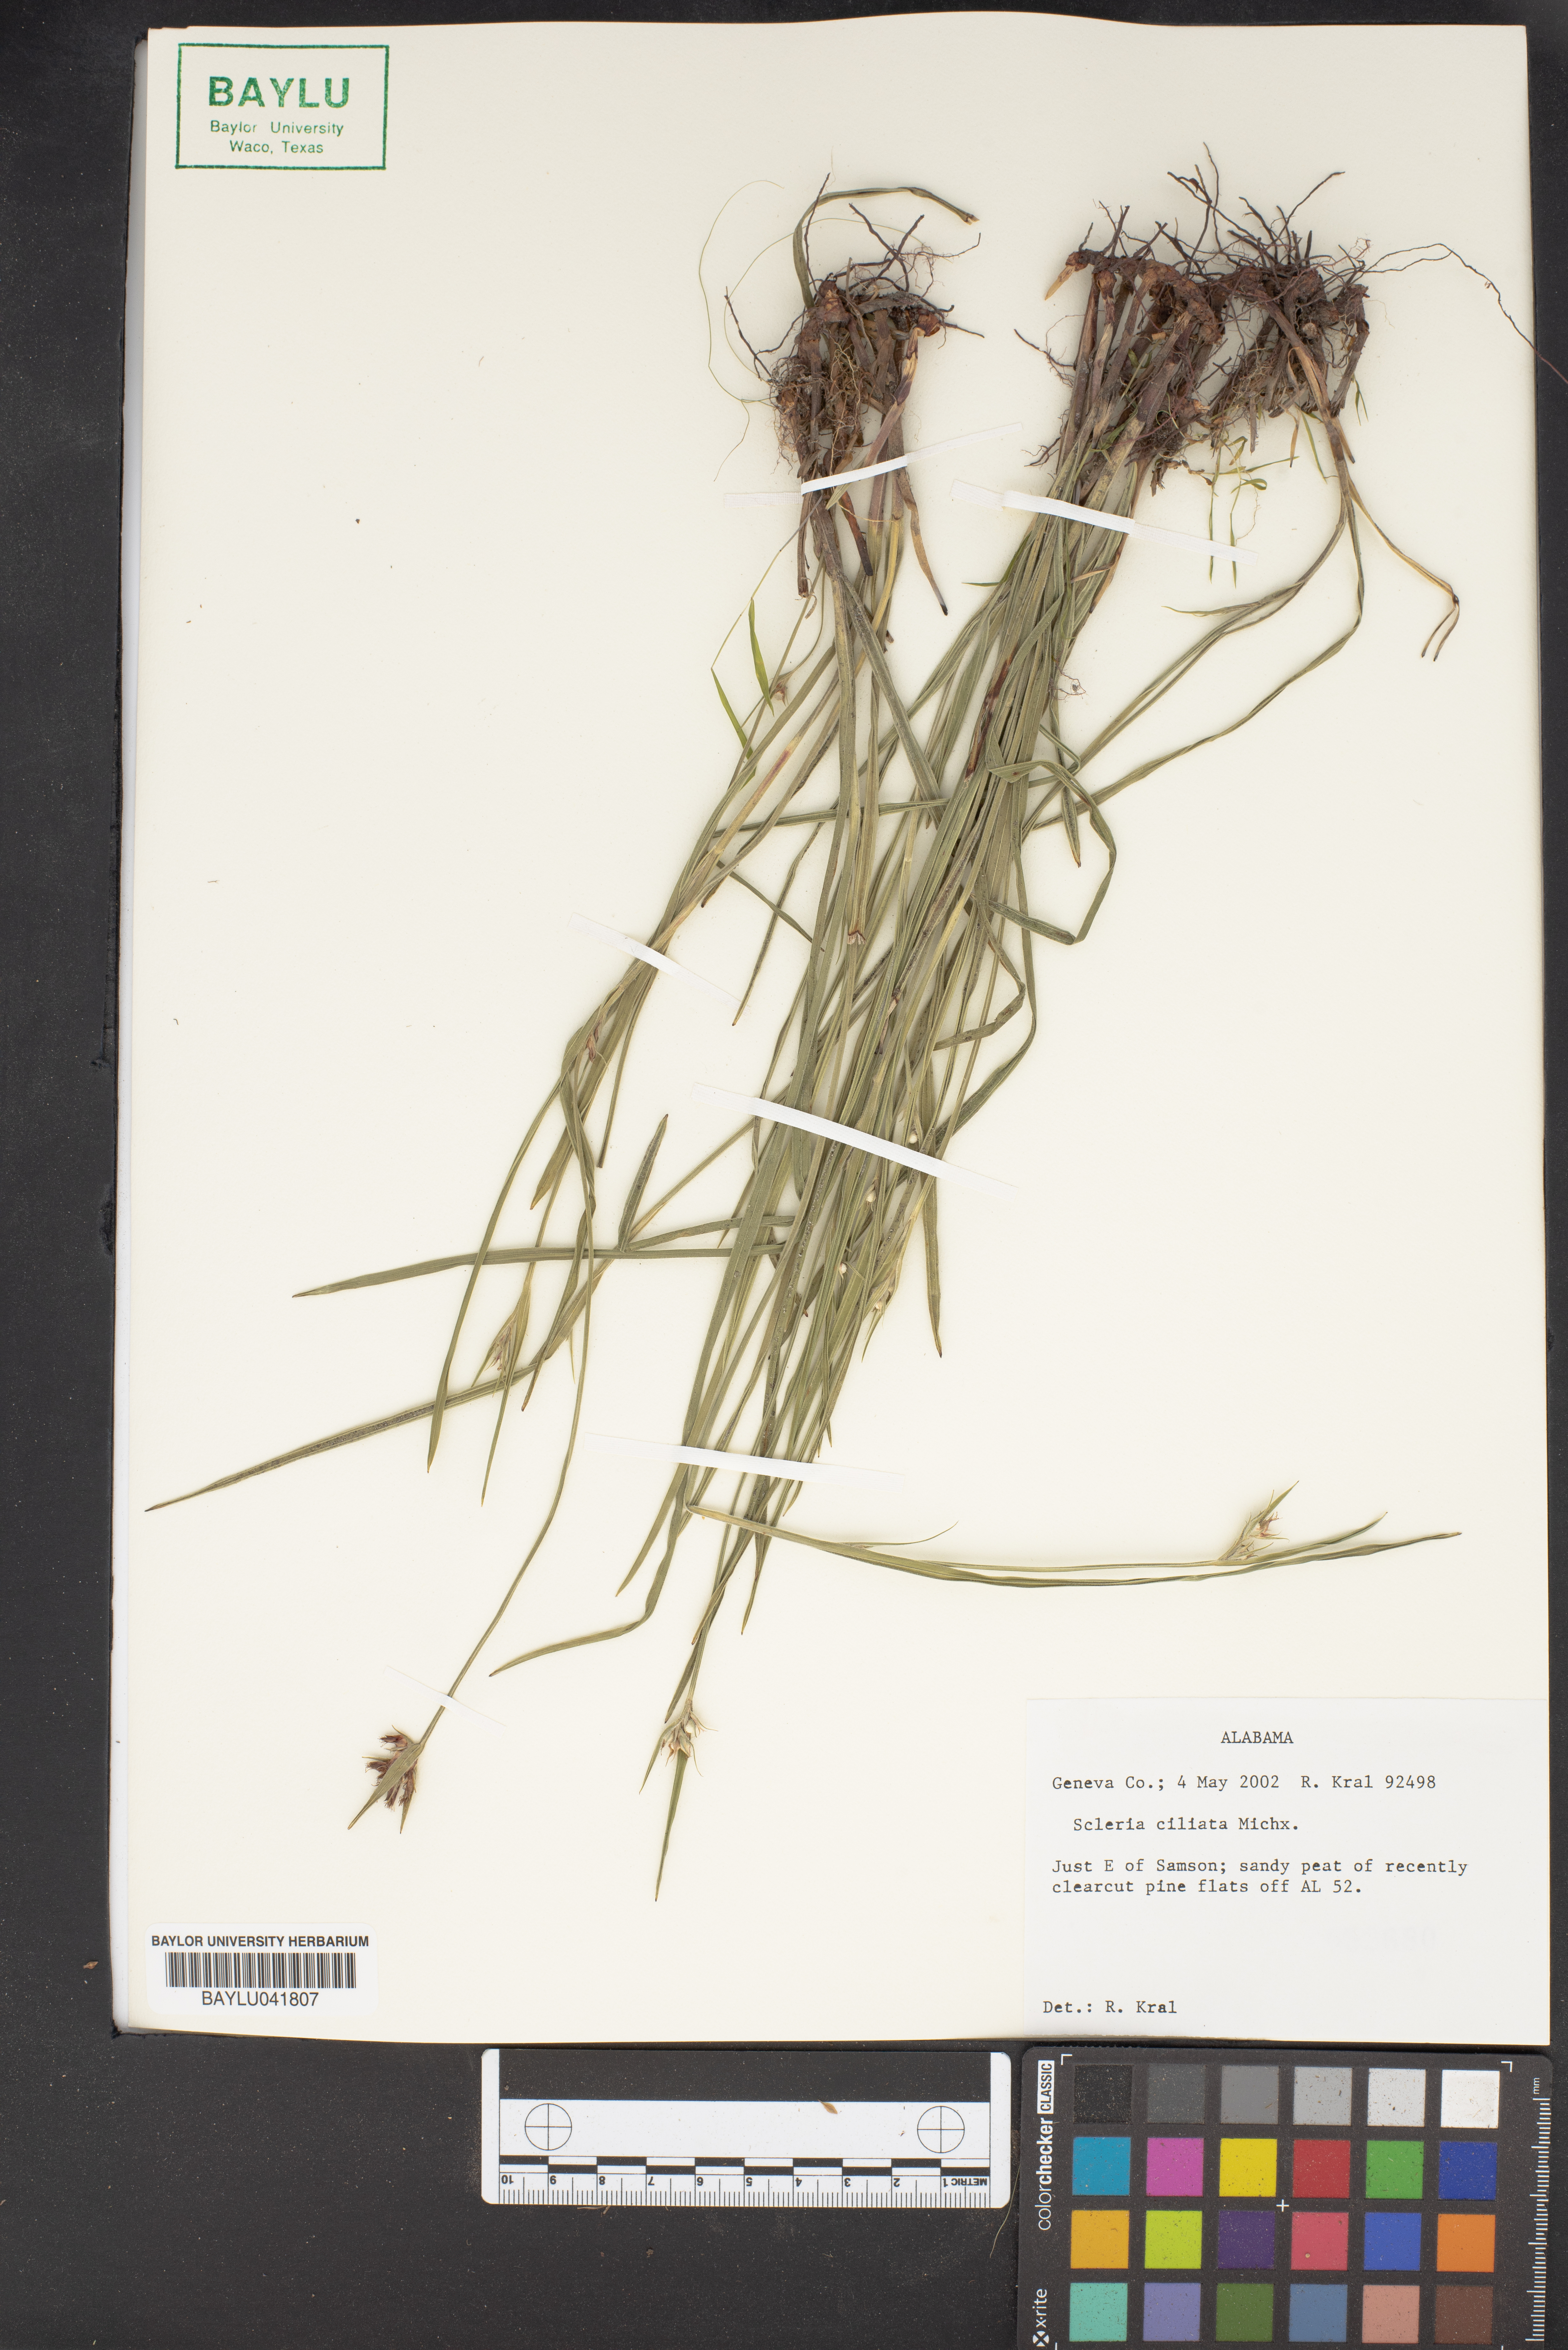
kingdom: Plantae
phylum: Tracheophyta
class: Liliopsida
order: Poales
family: Cyperaceae
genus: Scleria
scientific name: Scleria ciliata
